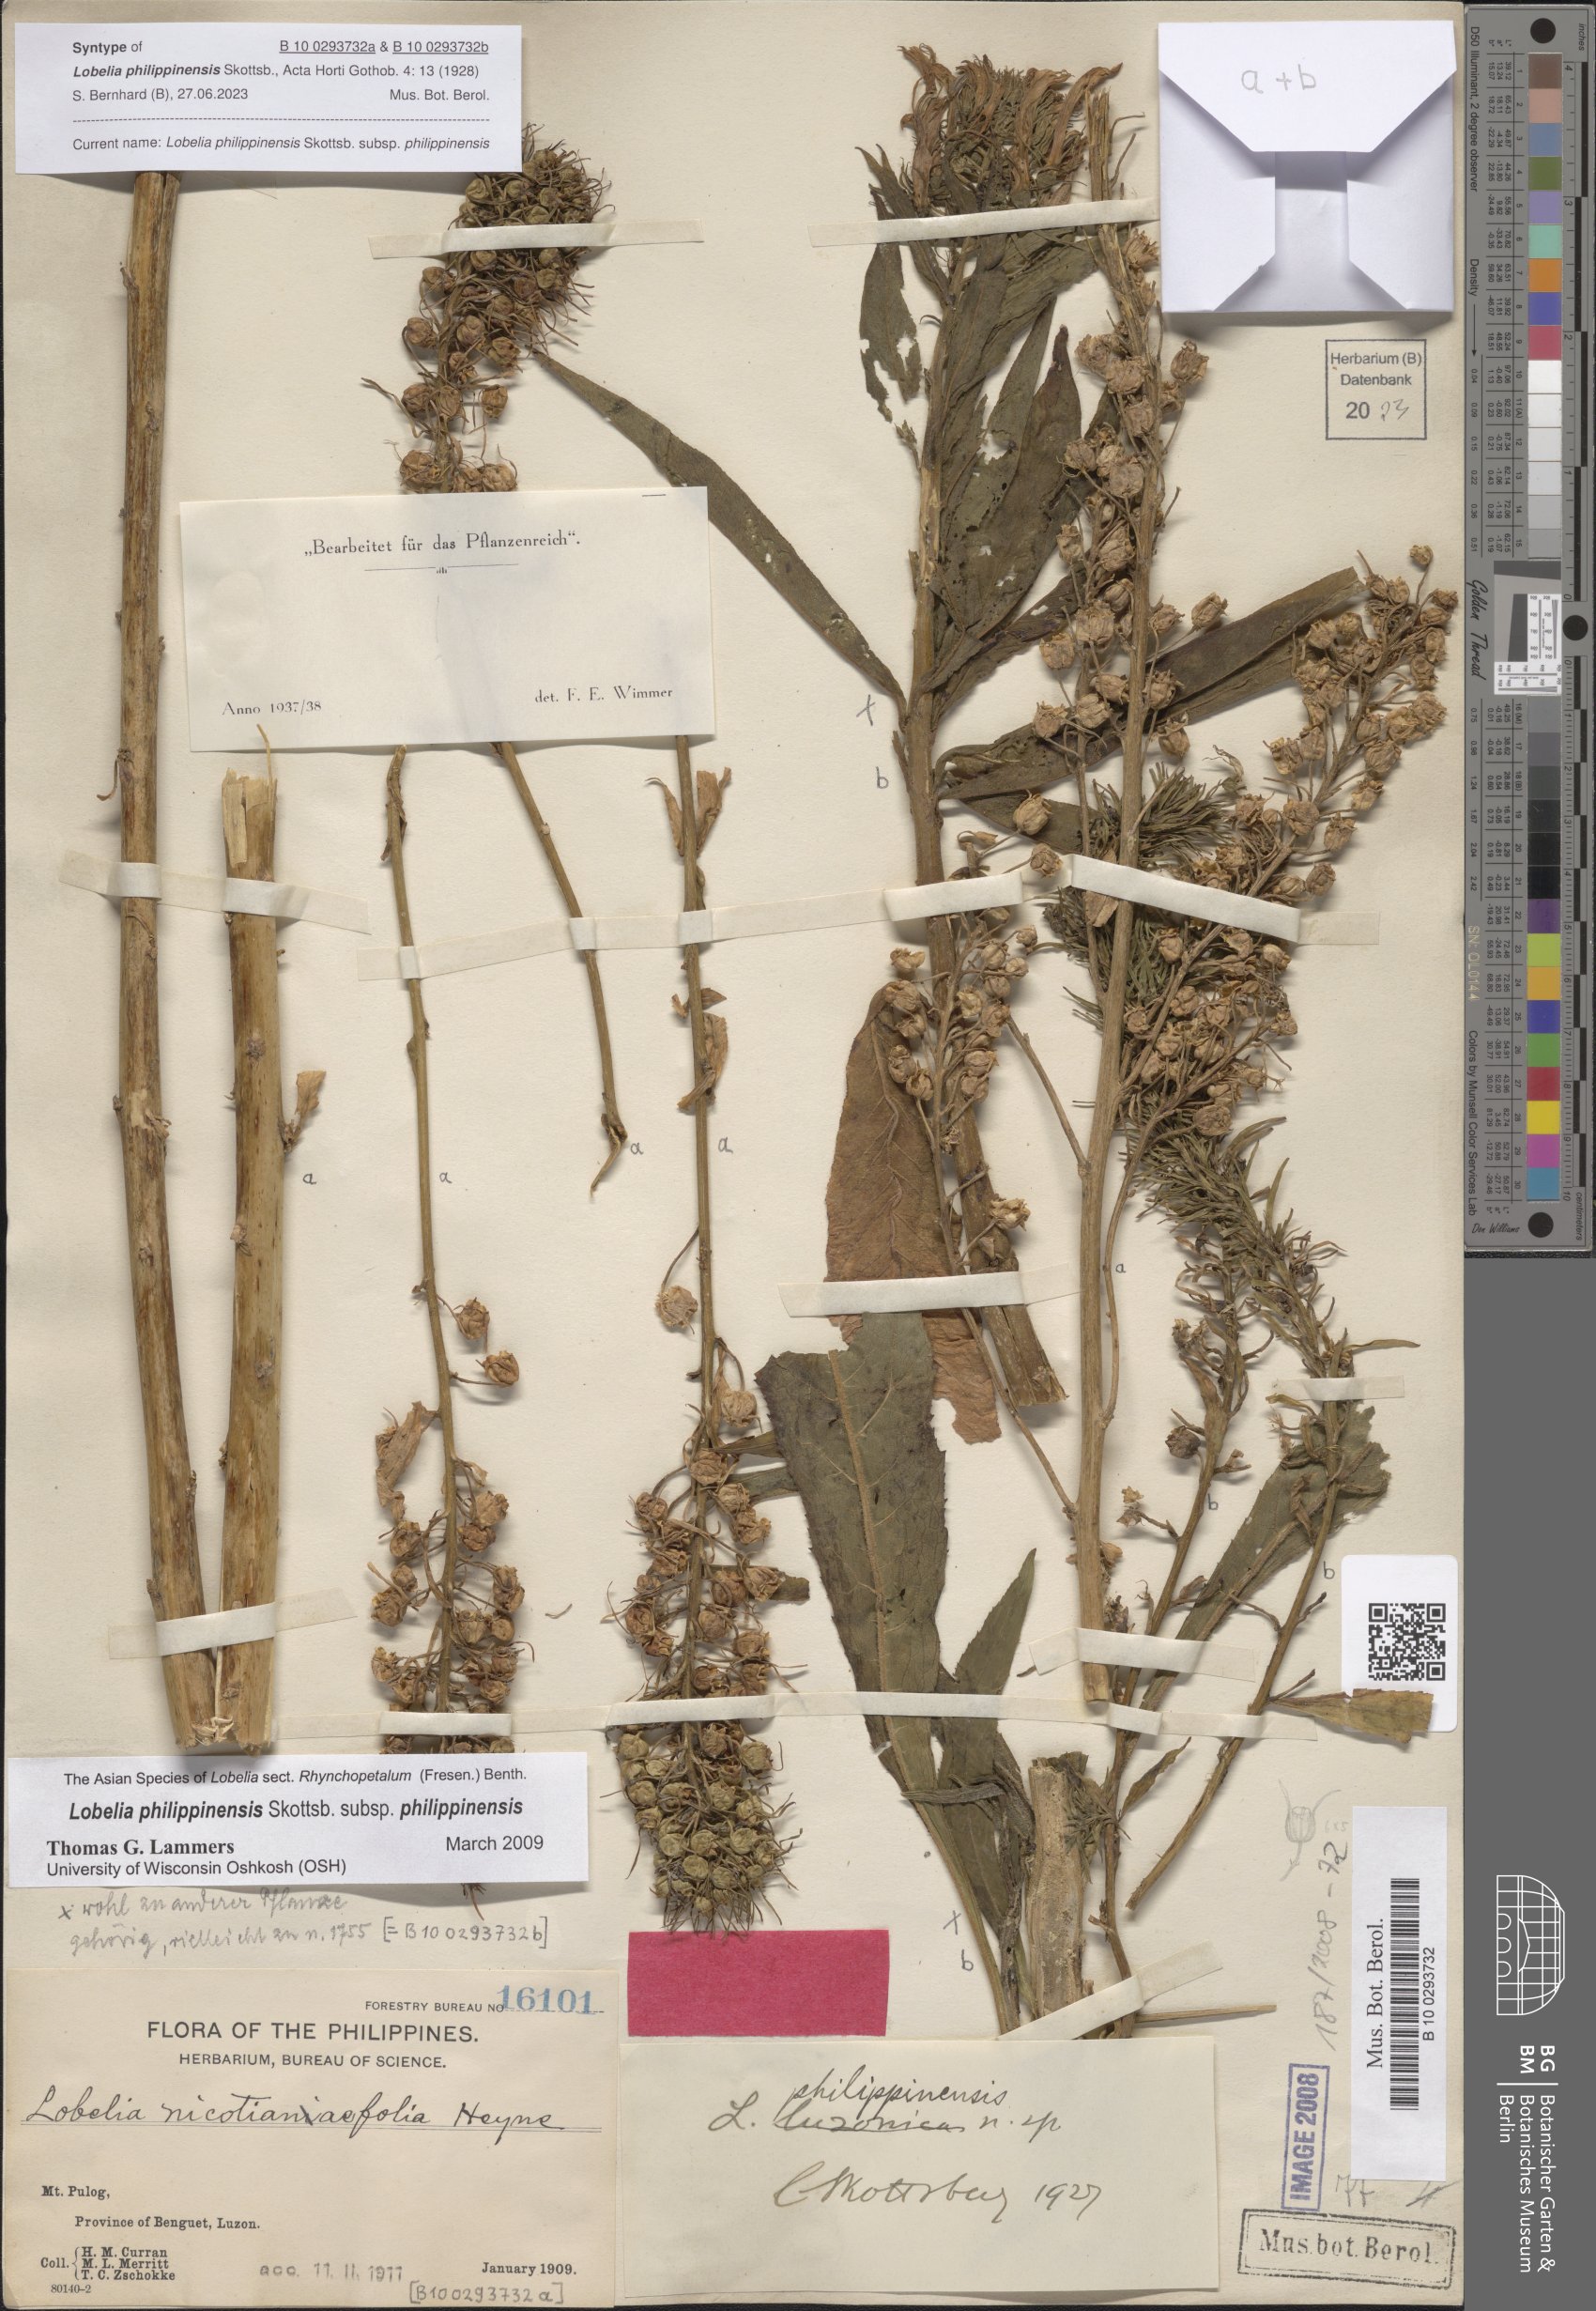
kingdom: Plantae
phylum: Tracheophyta
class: Magnoliopsida
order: Asterales
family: Campanulaceae
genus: Lobelia
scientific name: Lobelia philippinensis
